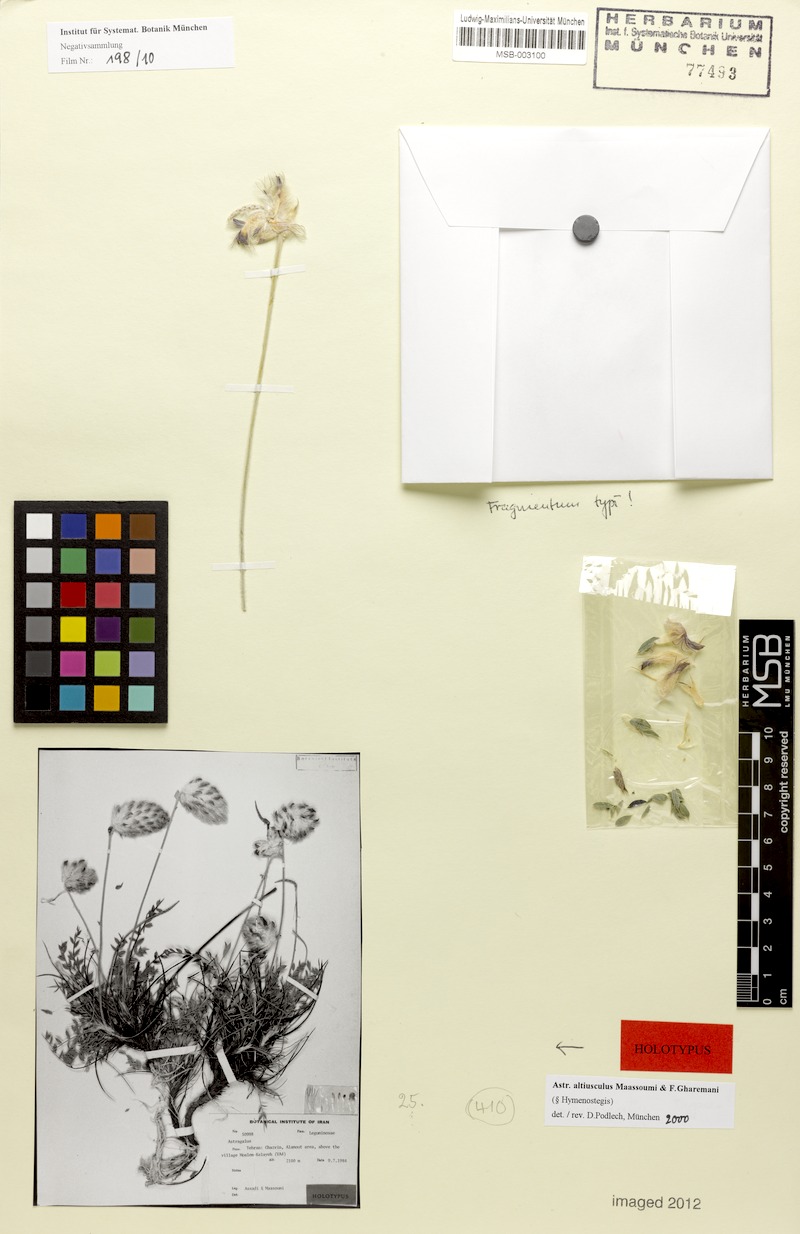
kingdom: Plantae
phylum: Tracheophyta
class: Magnoliopsida
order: Fabales
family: Fabaceae
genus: Astragalus
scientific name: Astragalus altiusculus
